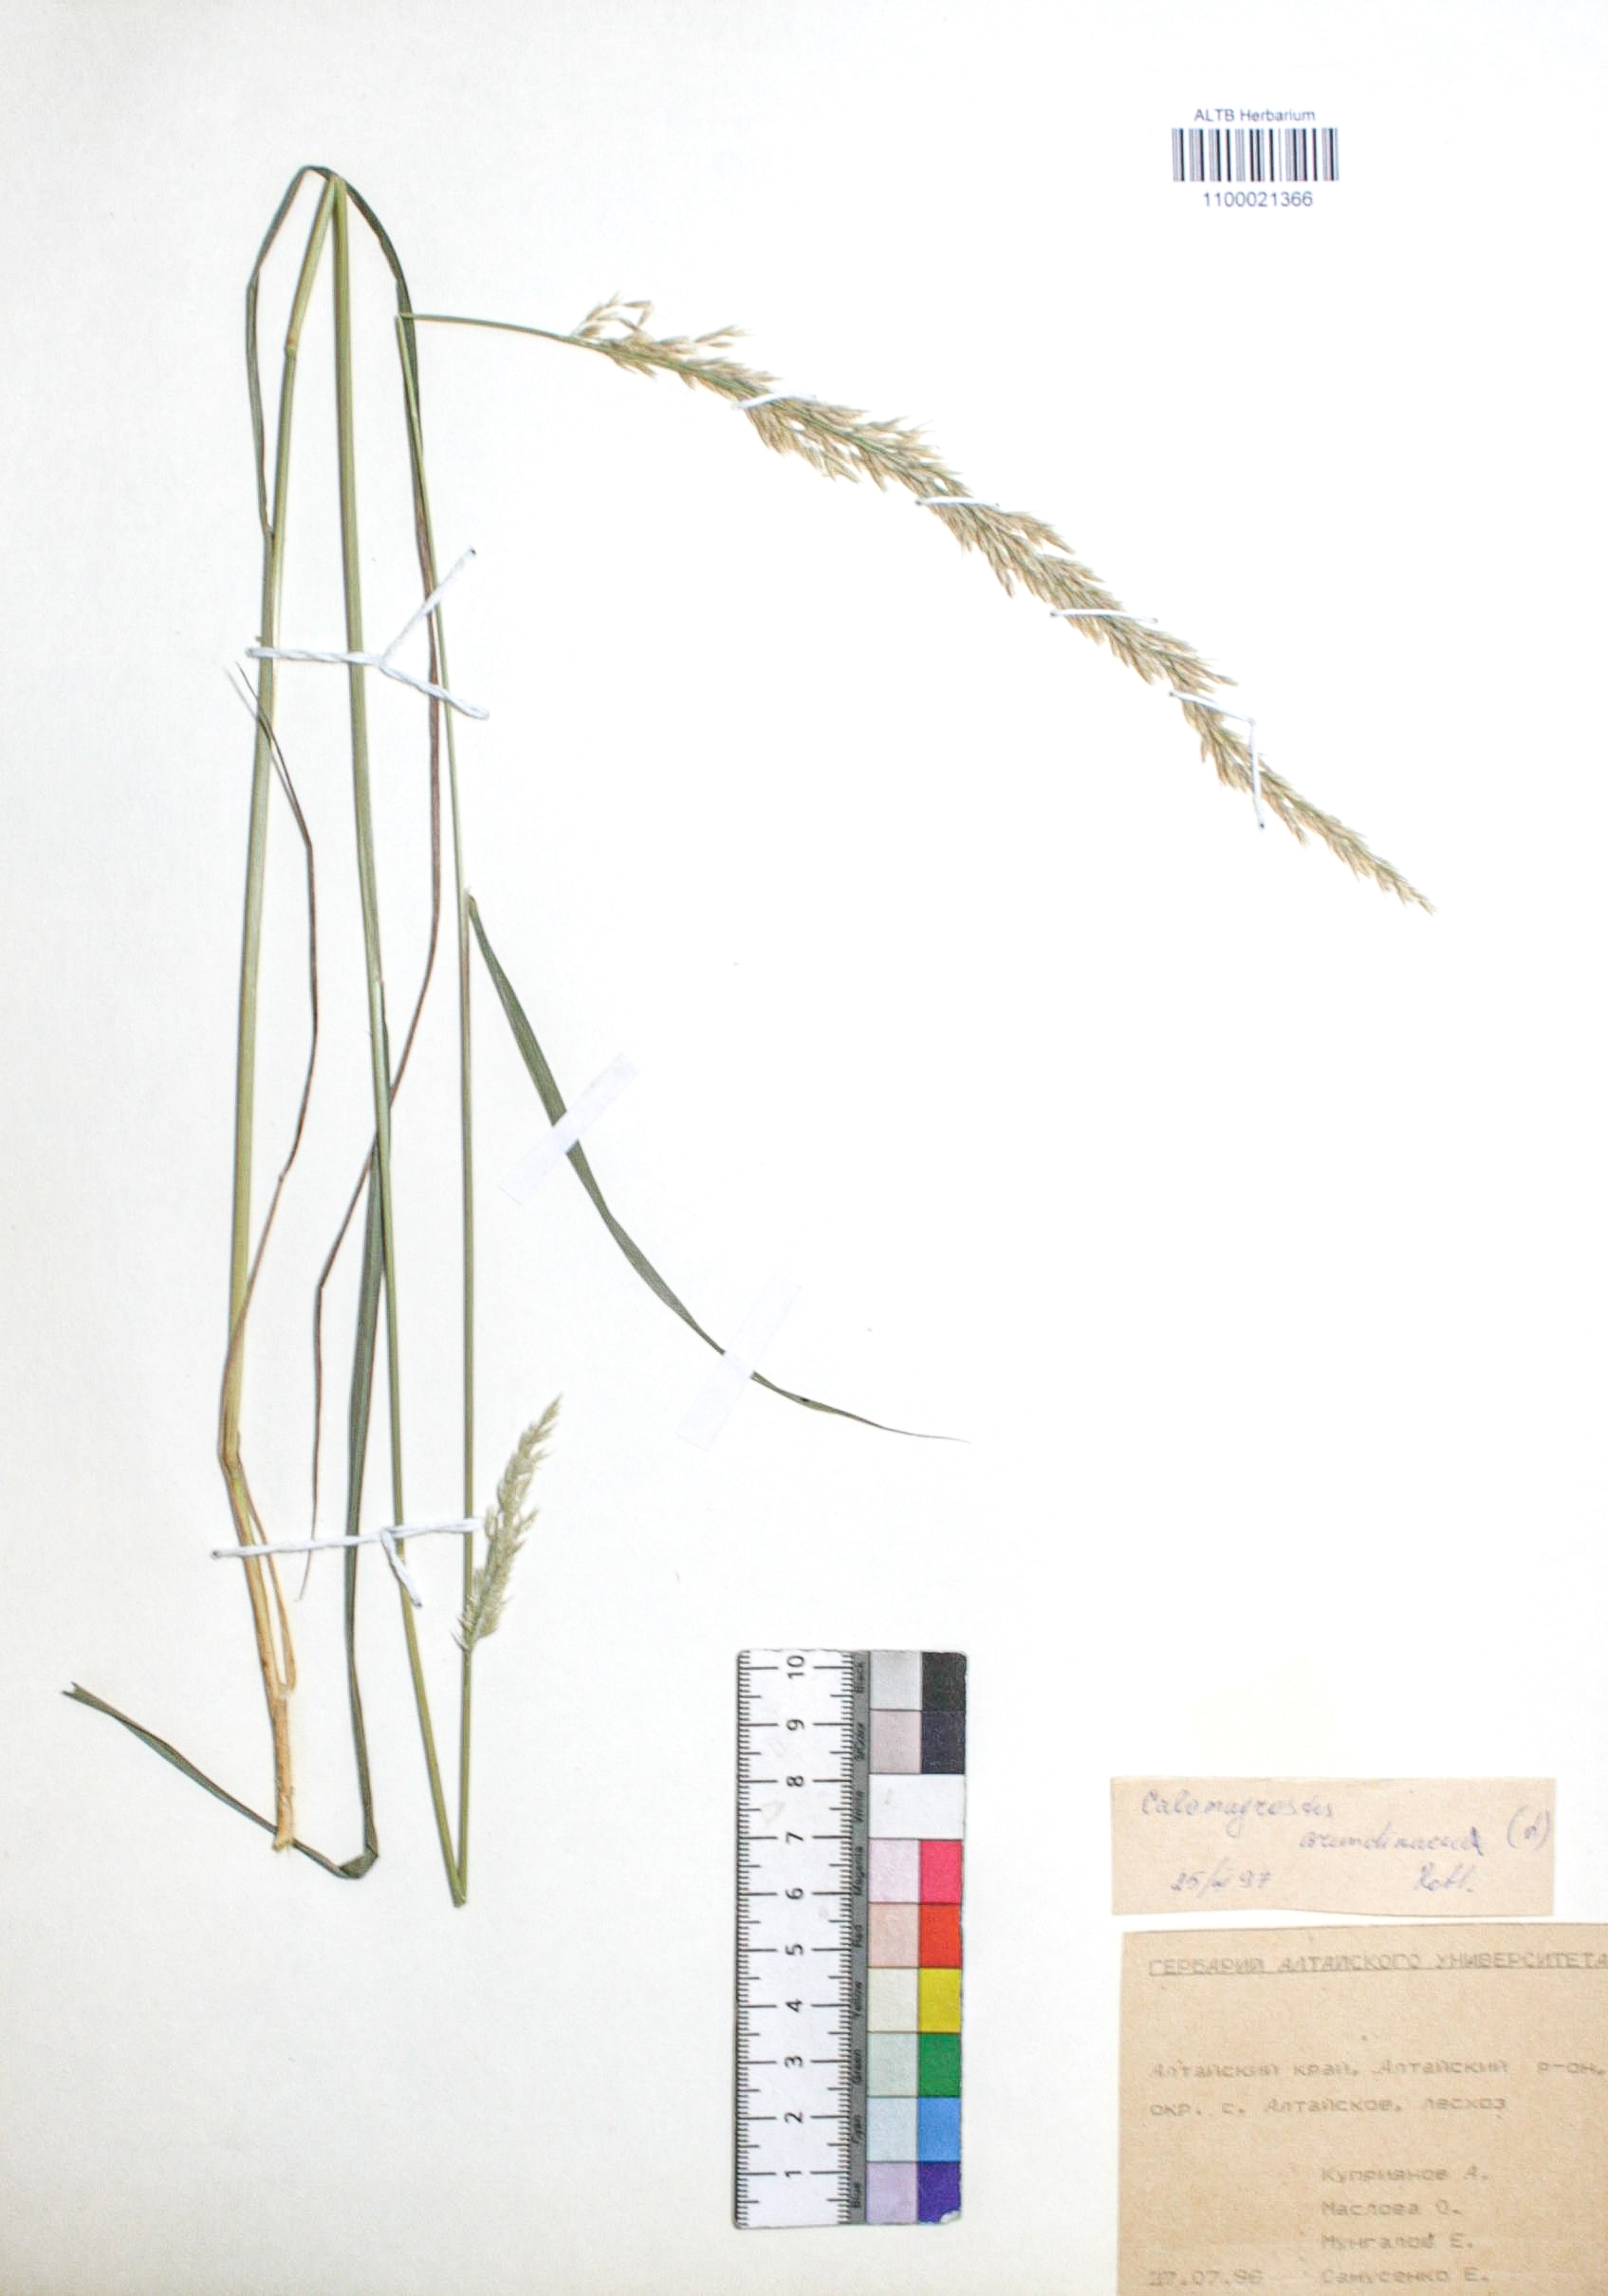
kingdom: Plantae
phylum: Tracheophyta
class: Liliopsida
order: Poales
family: Poaceae
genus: Calamagrostis
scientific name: Calamagrostis arundinacea
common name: Metskastik
